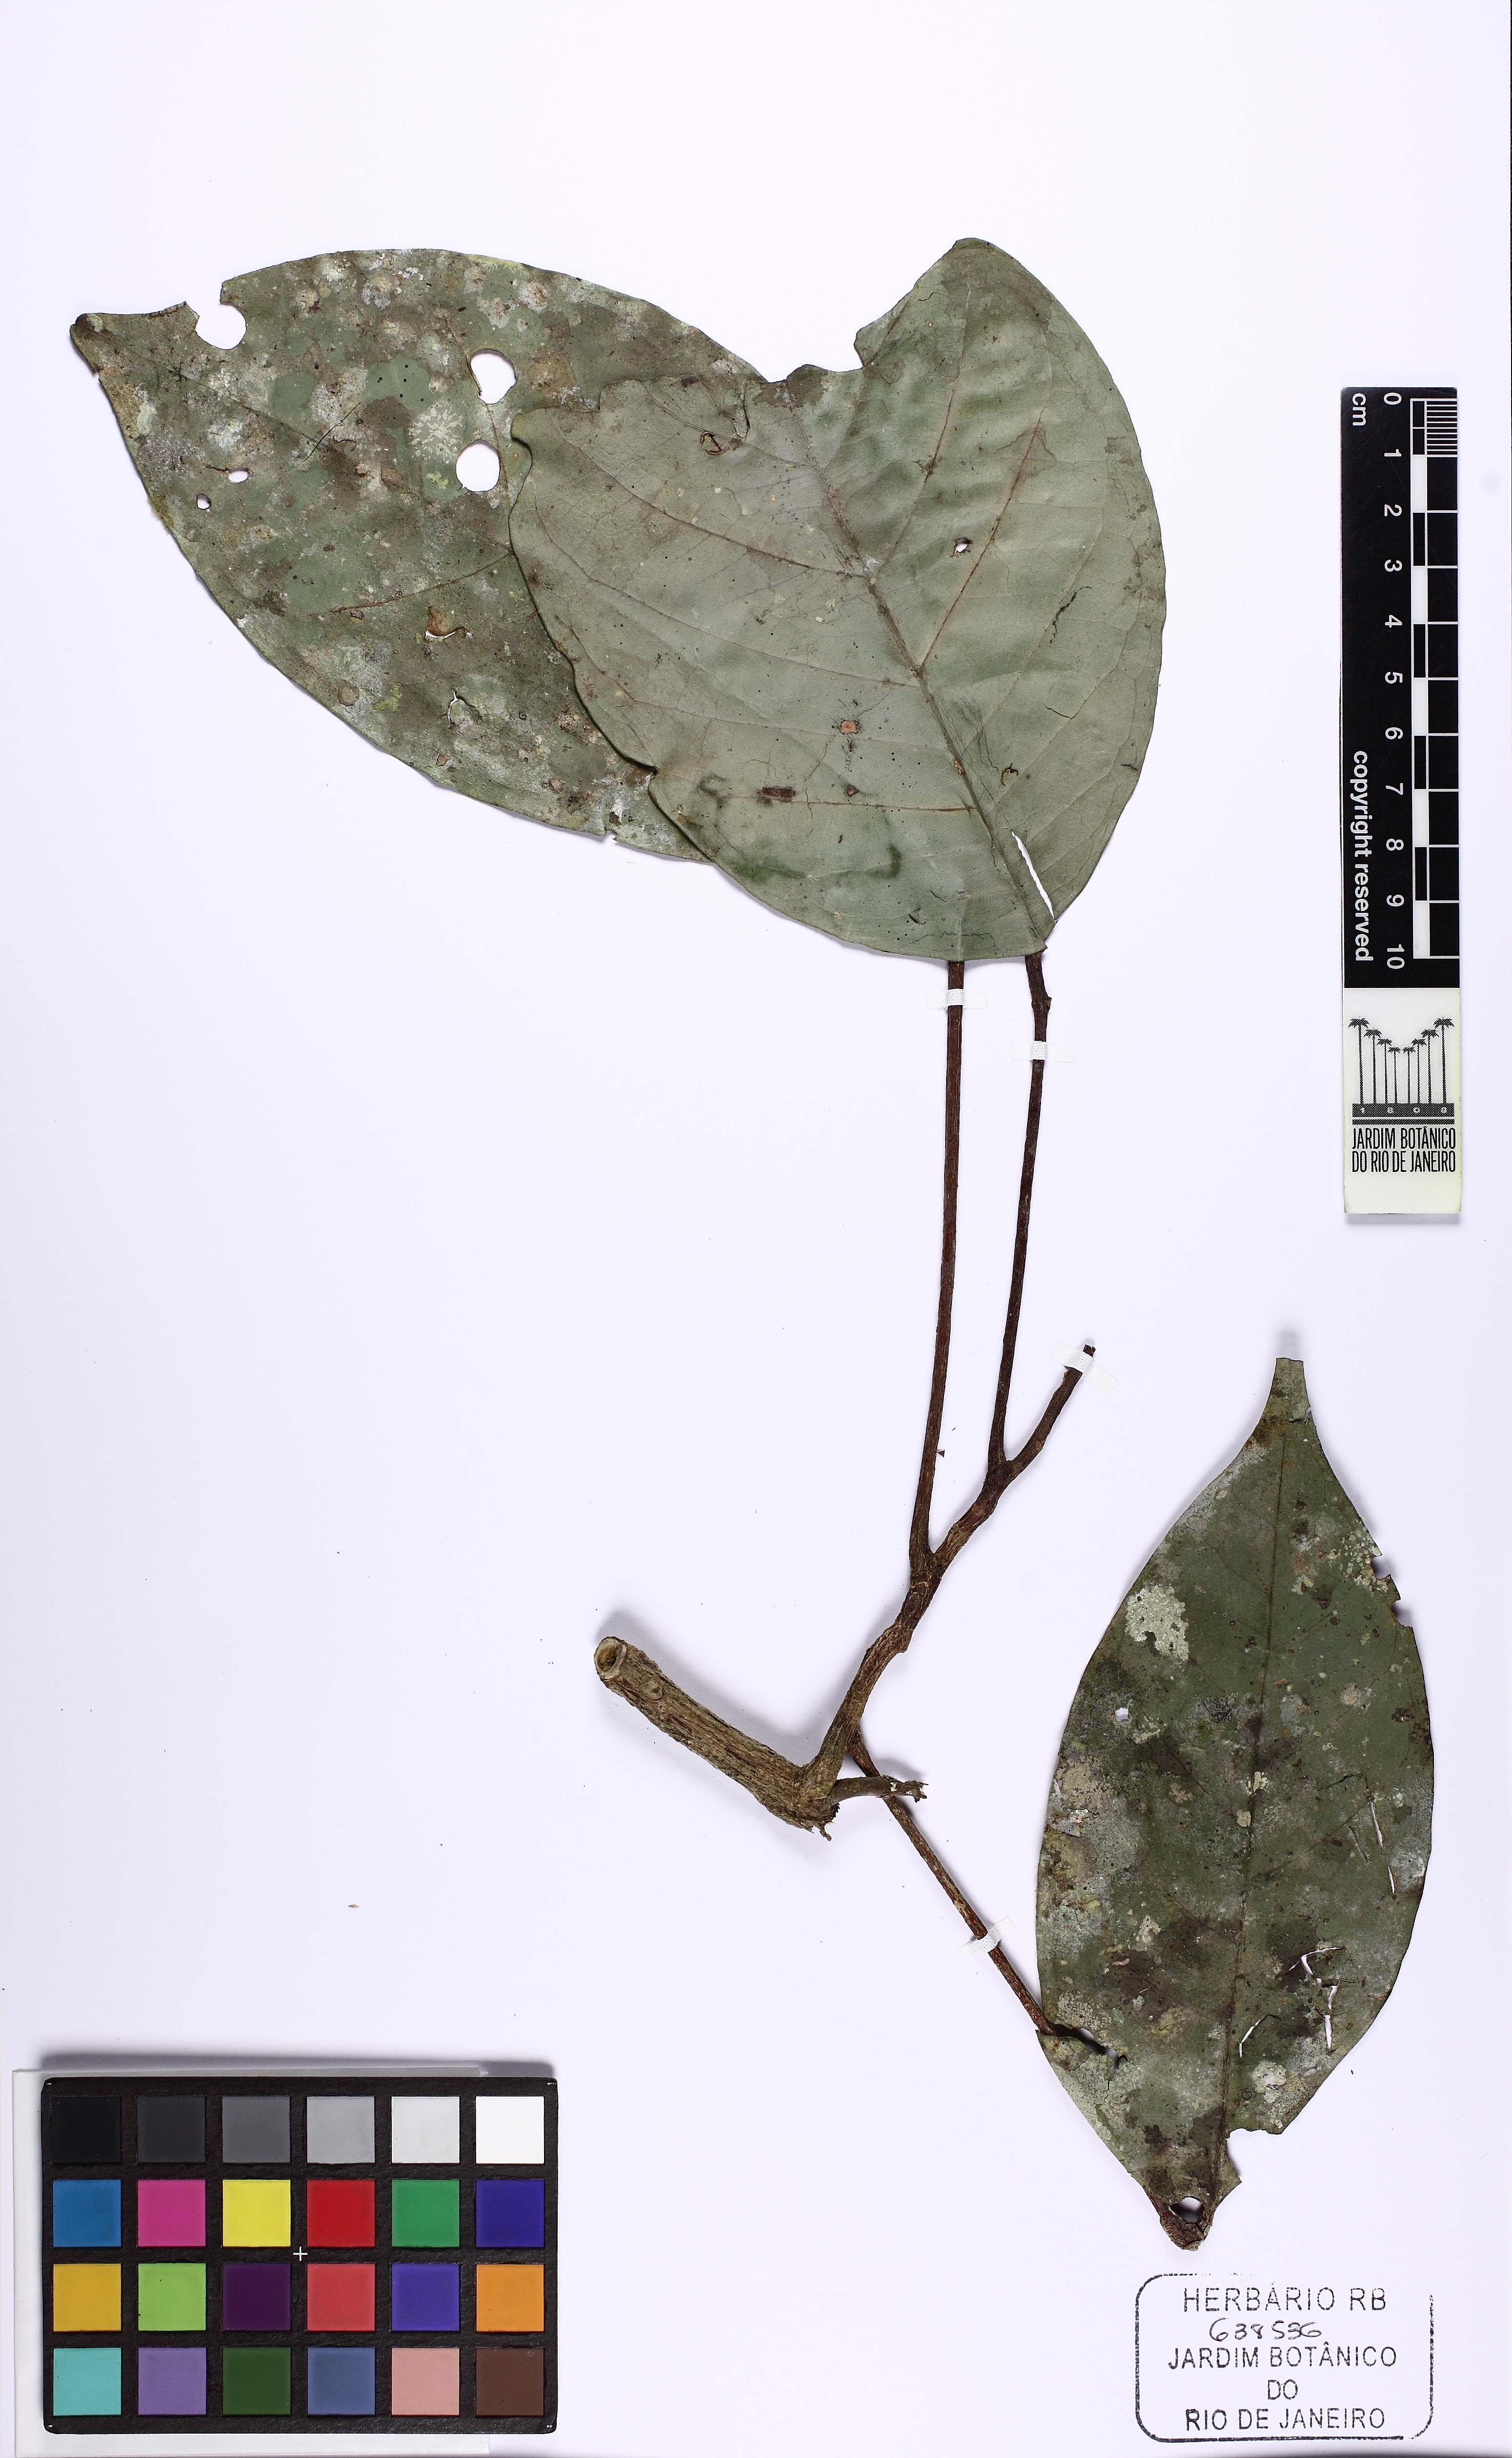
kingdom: Plantae
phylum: Tracheophyta
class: Magnoliopsida
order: Sapindales
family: Rutaceae
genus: Spiranthera
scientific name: Spiranthera peruviana
